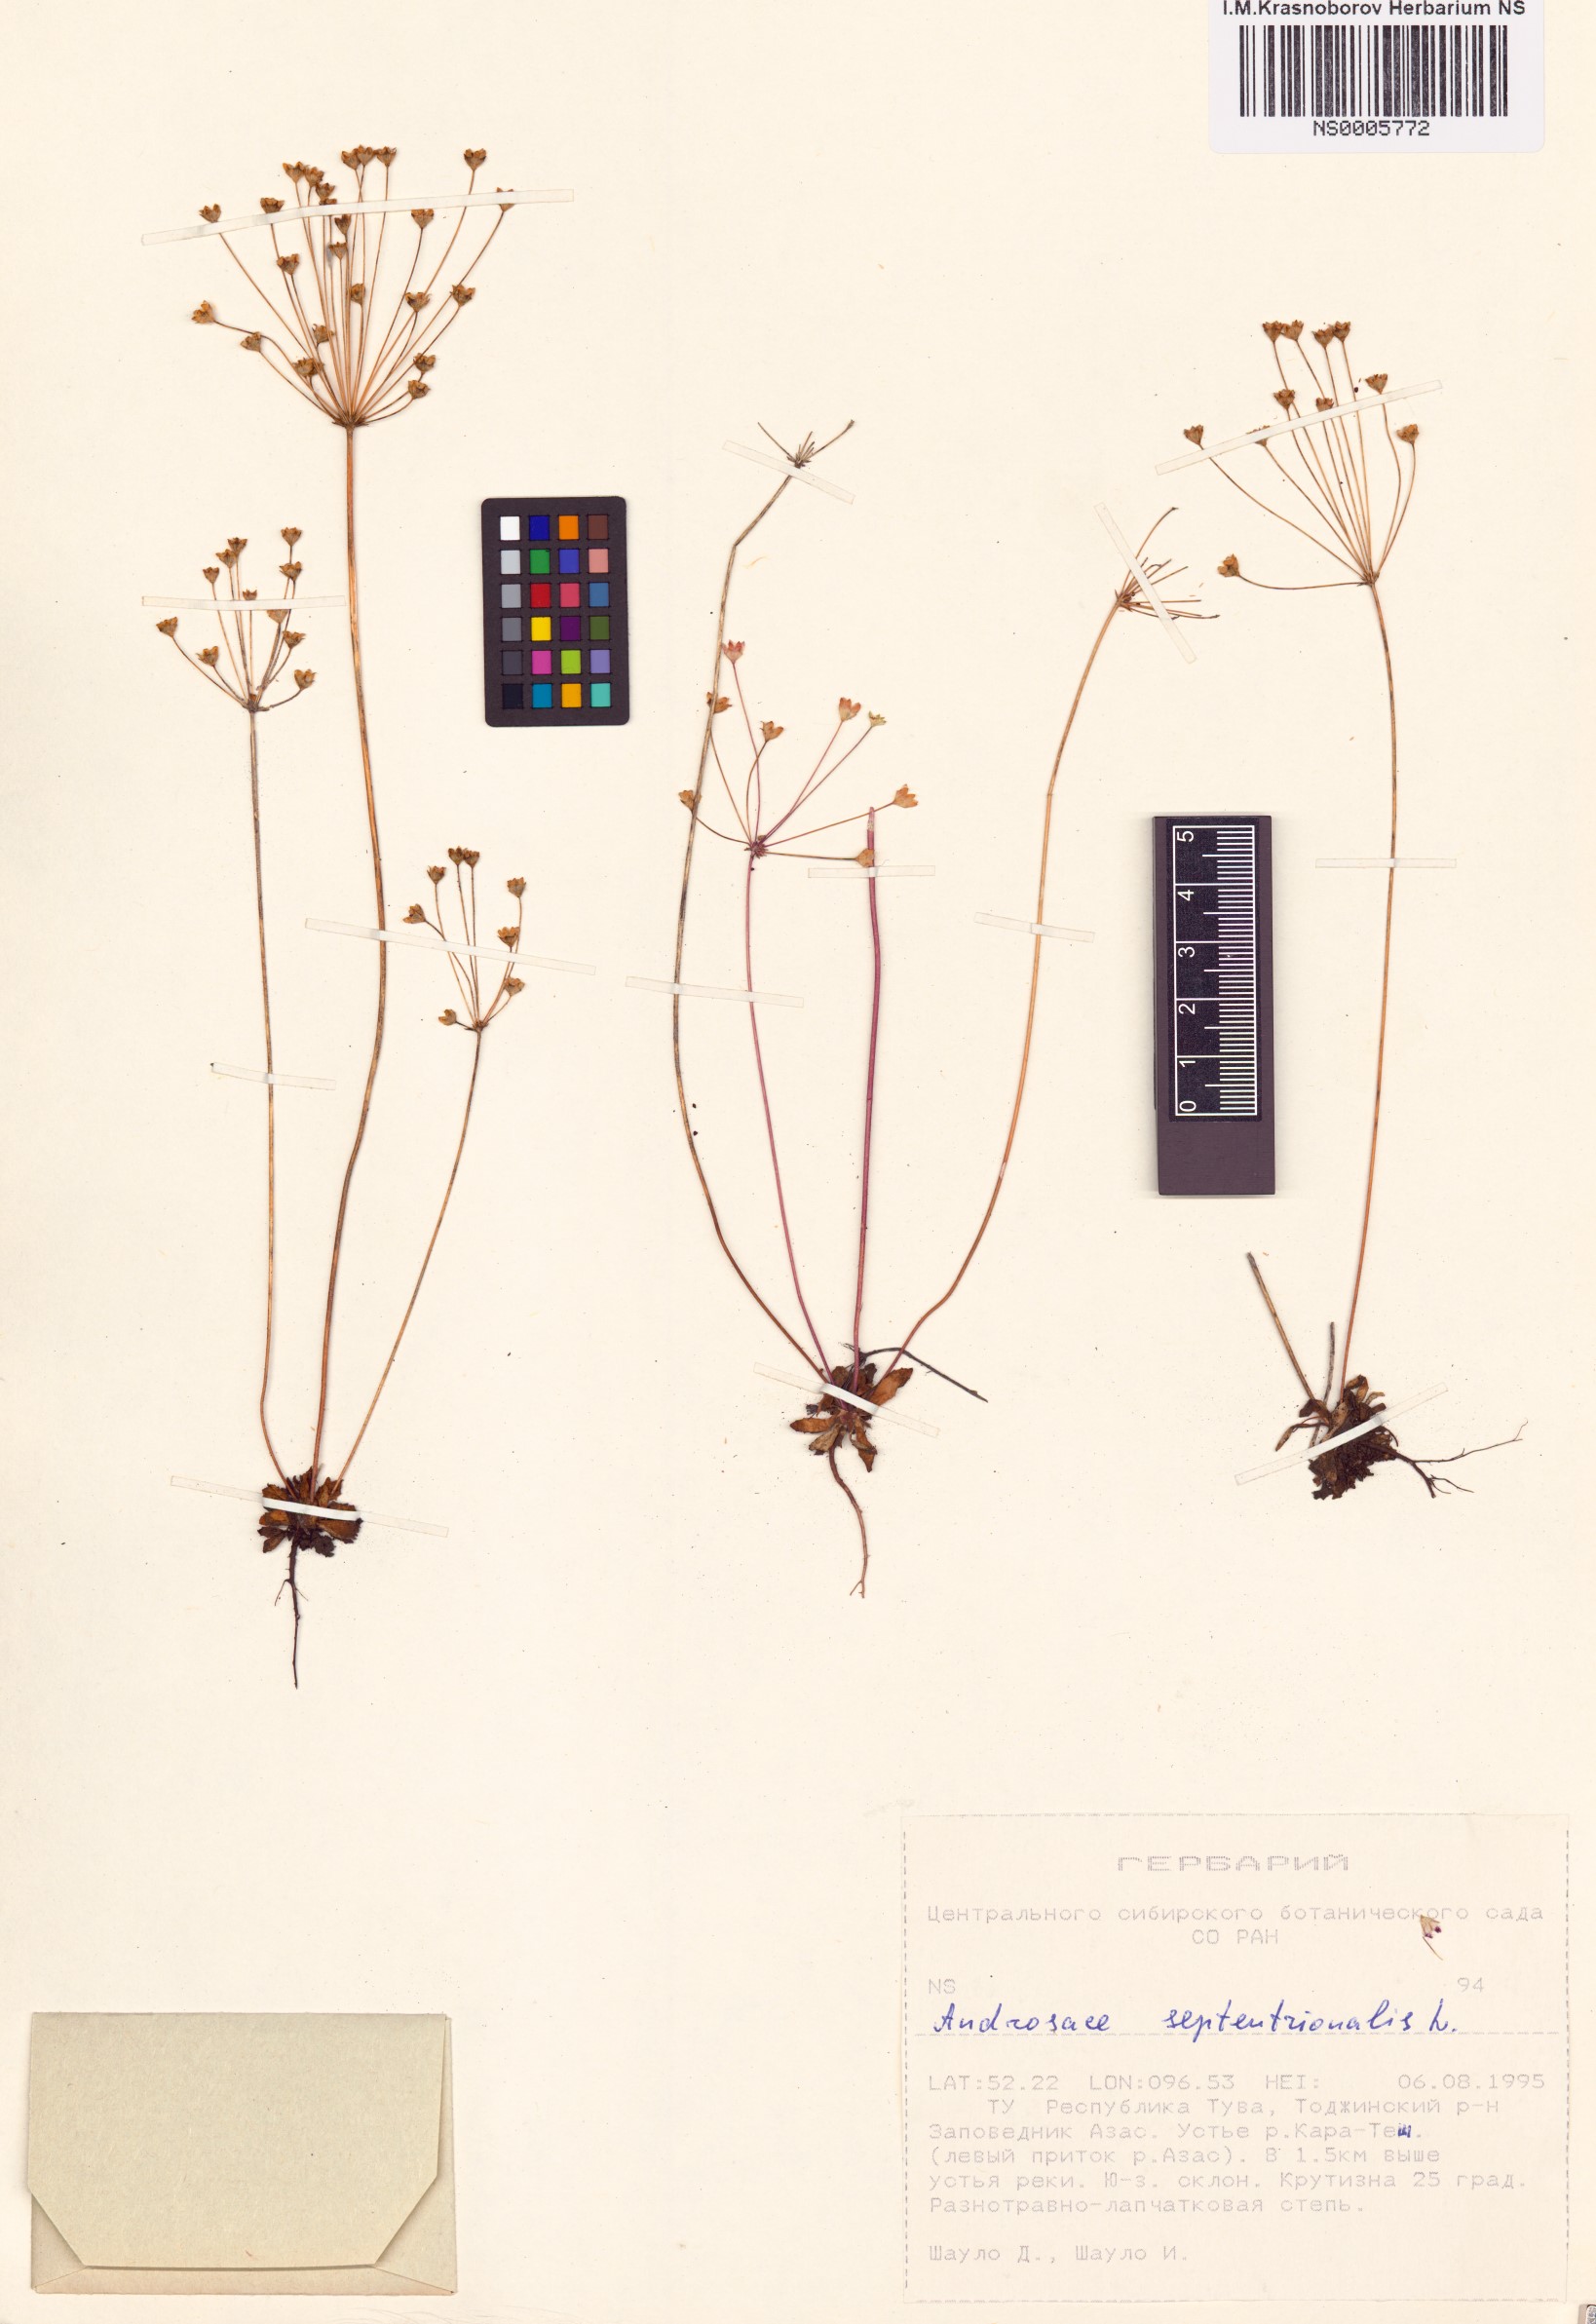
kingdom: Plantae
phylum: Tracheophyta
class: Magnoliopsida
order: Ericales
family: Primulaceae
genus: Androsace
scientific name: Androsace septentrionalis
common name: Hairy northern fairy-candelabra
